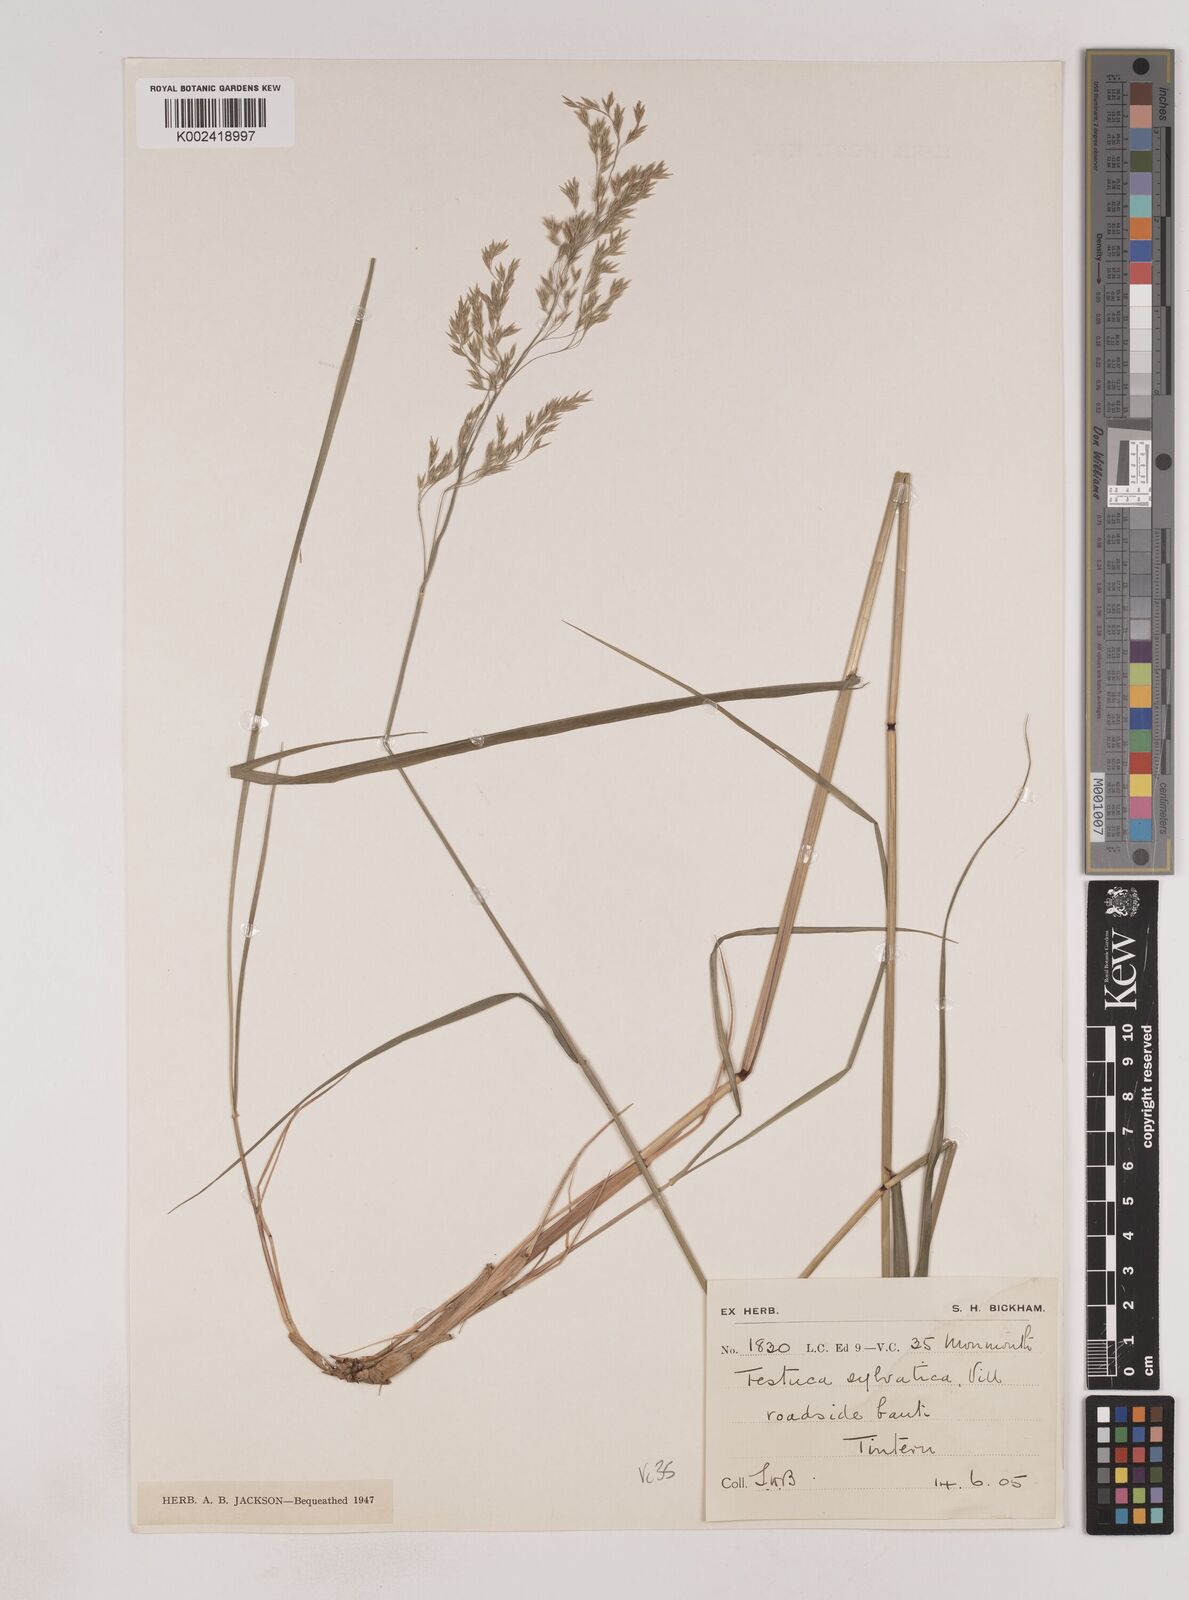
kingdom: Plantae
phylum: Tracheophyta
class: Liliopsida
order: Poales
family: Poaceae
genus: Festuca
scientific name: Festuca drymeja
